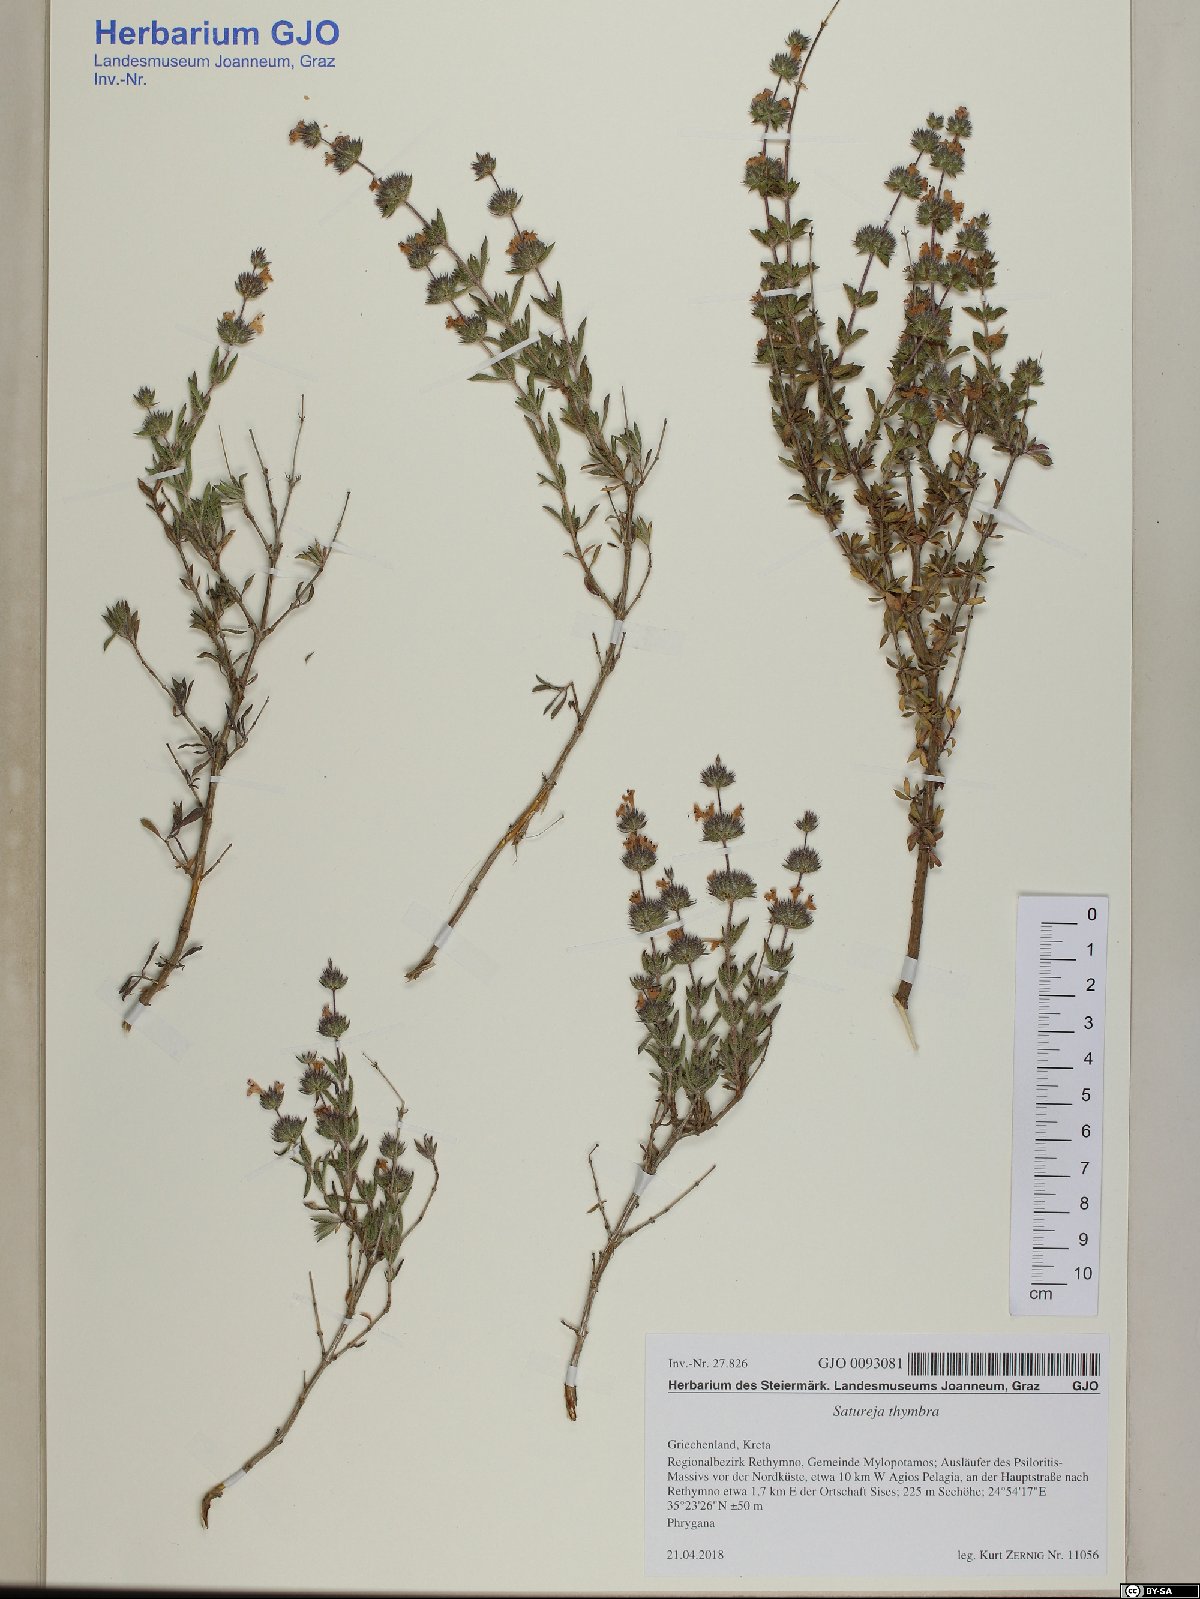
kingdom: Plantae
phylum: Tracheophyta
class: Magnoliopsida
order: Lamiales
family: Lamiaceae
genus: Satureja
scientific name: Satureja thymbra
